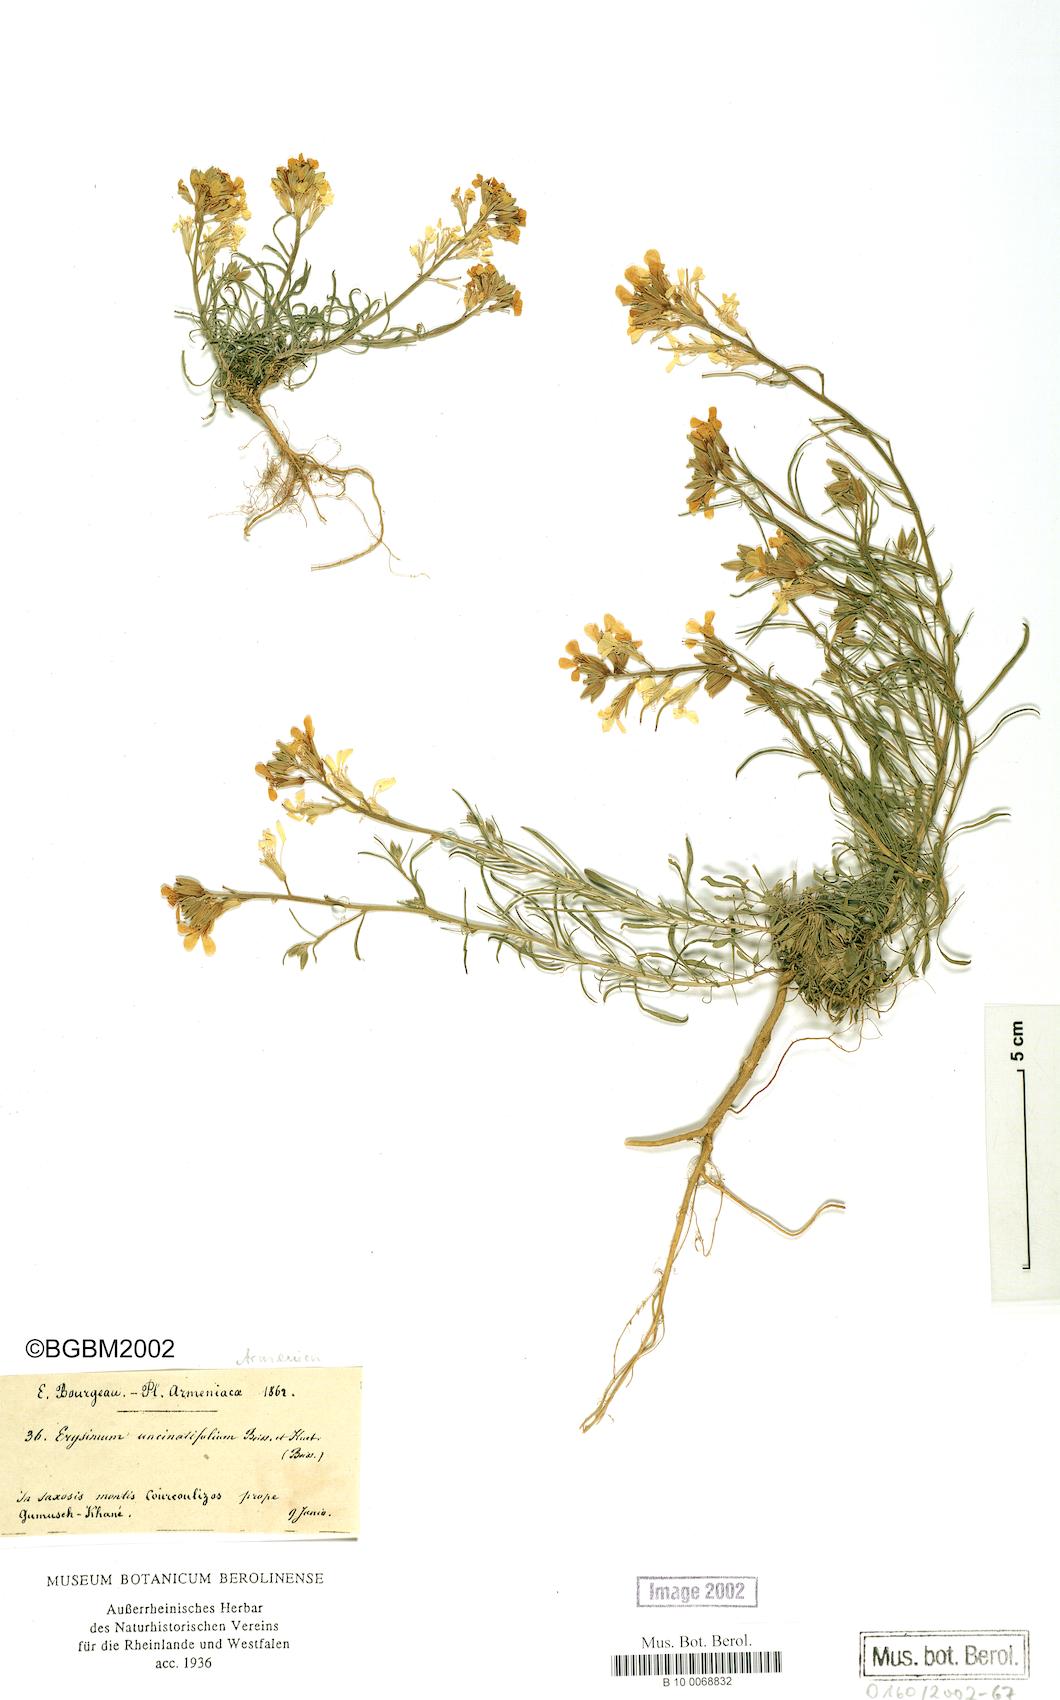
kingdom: Plantae
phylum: Tracheophyta
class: Magnoliopsida
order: Brassicales
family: Brassicaceae
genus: Erysimum
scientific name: Erysimum uncinatifolium
